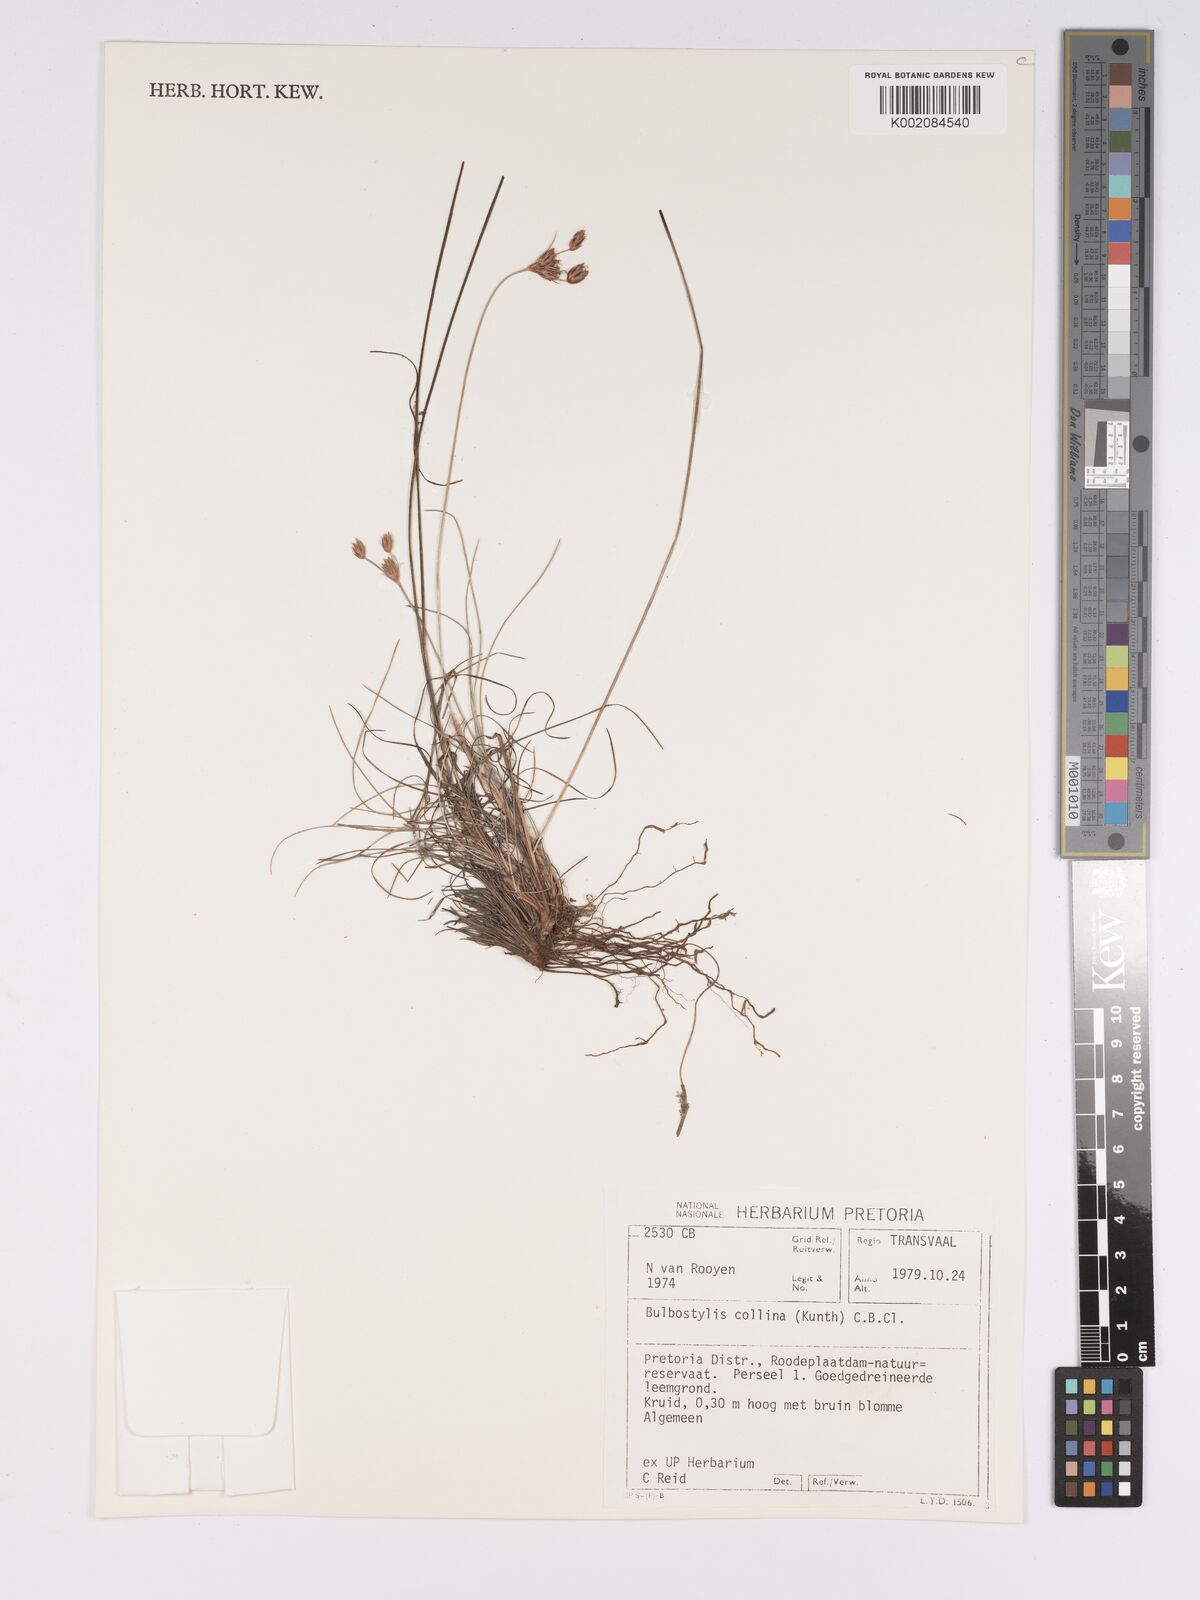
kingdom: Plantae
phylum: Tracheophyta
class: Liliopsida
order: Poales
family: Cyperaceae
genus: Bulbostylis
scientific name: Bulbostylis contexta
